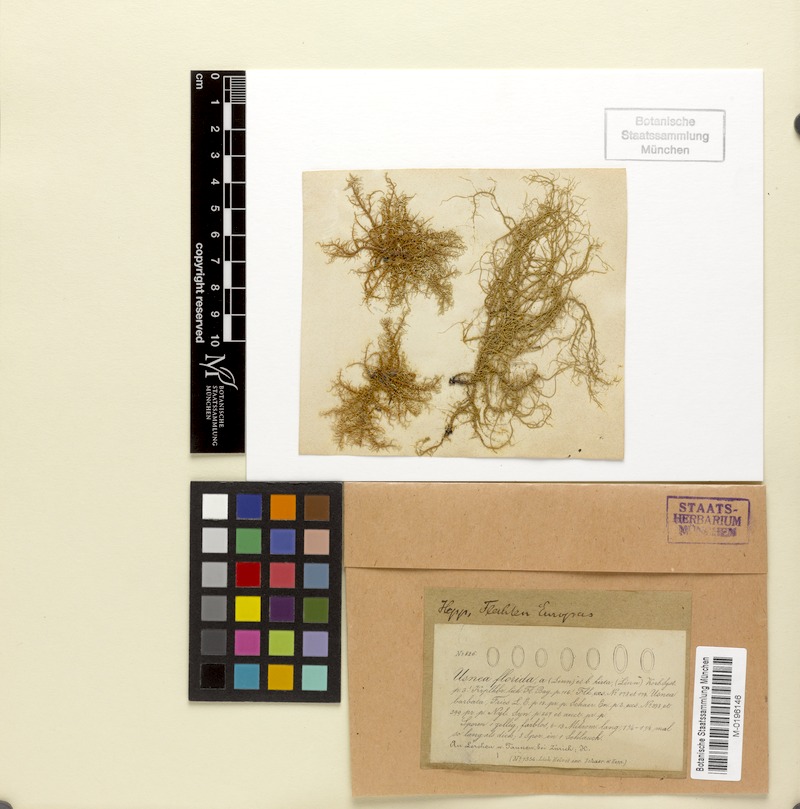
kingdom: Fungi
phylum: Ascomycota
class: Lecanoromycetes
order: Lecanorales
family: Parmeliaceae
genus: Usnea
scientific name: Usnea glabrata
